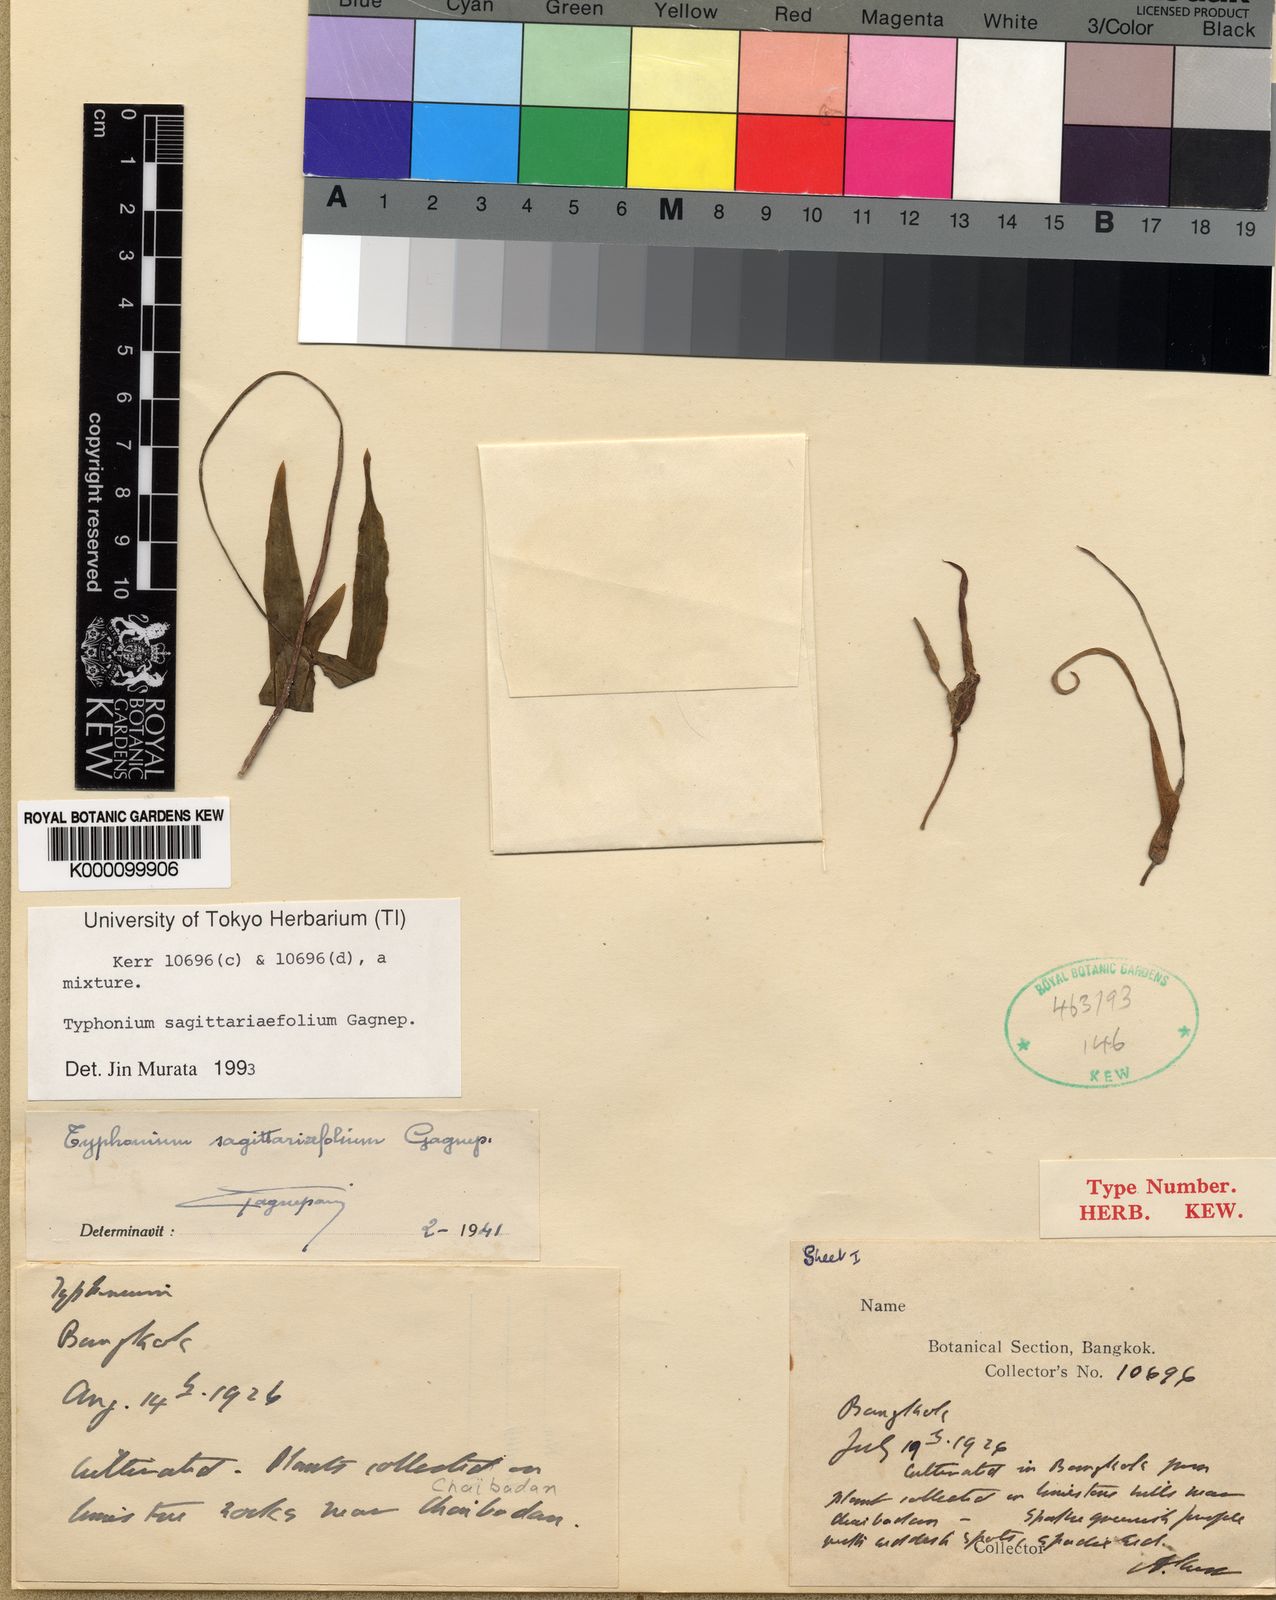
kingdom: Plantae
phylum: Tracheophyta
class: Liliopsida
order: Alismatales
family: Araceae
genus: Typhonium
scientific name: Typhonium sagittariifolium
